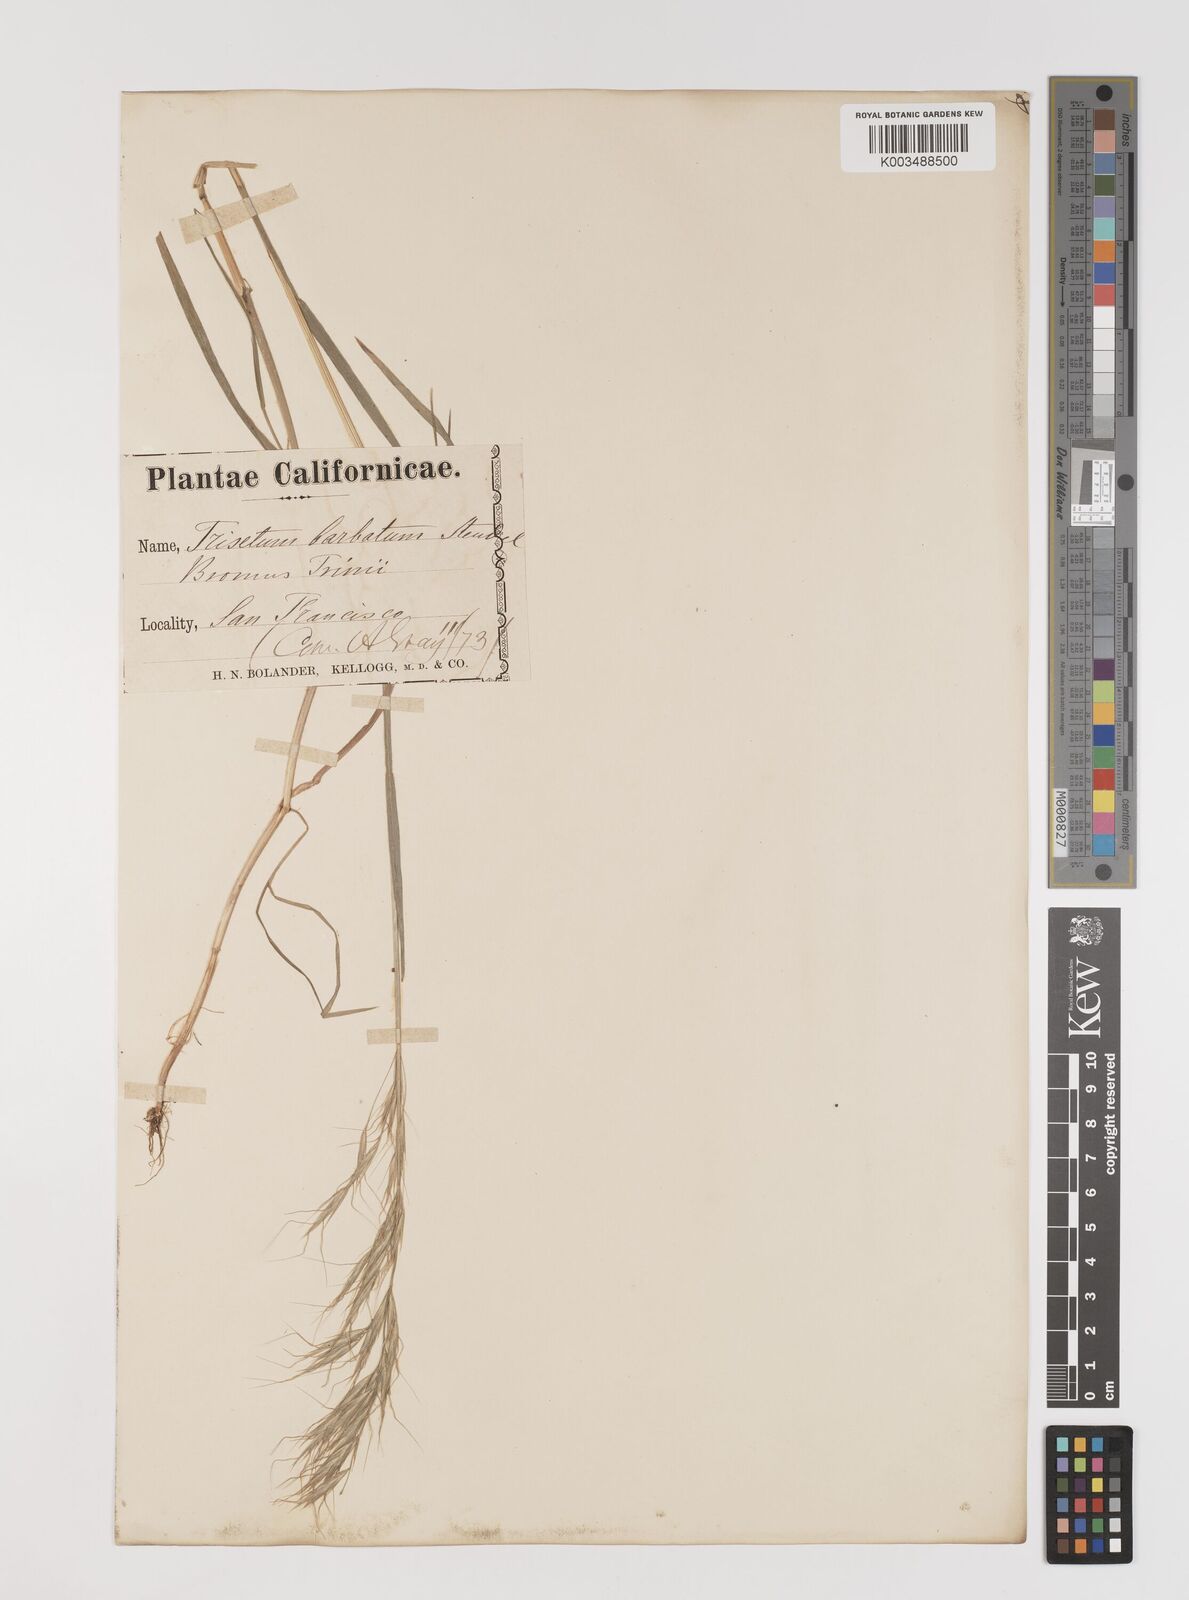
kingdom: Plantae
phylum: Tracheophyta
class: Liliopsida
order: Poales
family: Poaceae
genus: Bromus
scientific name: Bromus berteroanus
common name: Chilean chess
